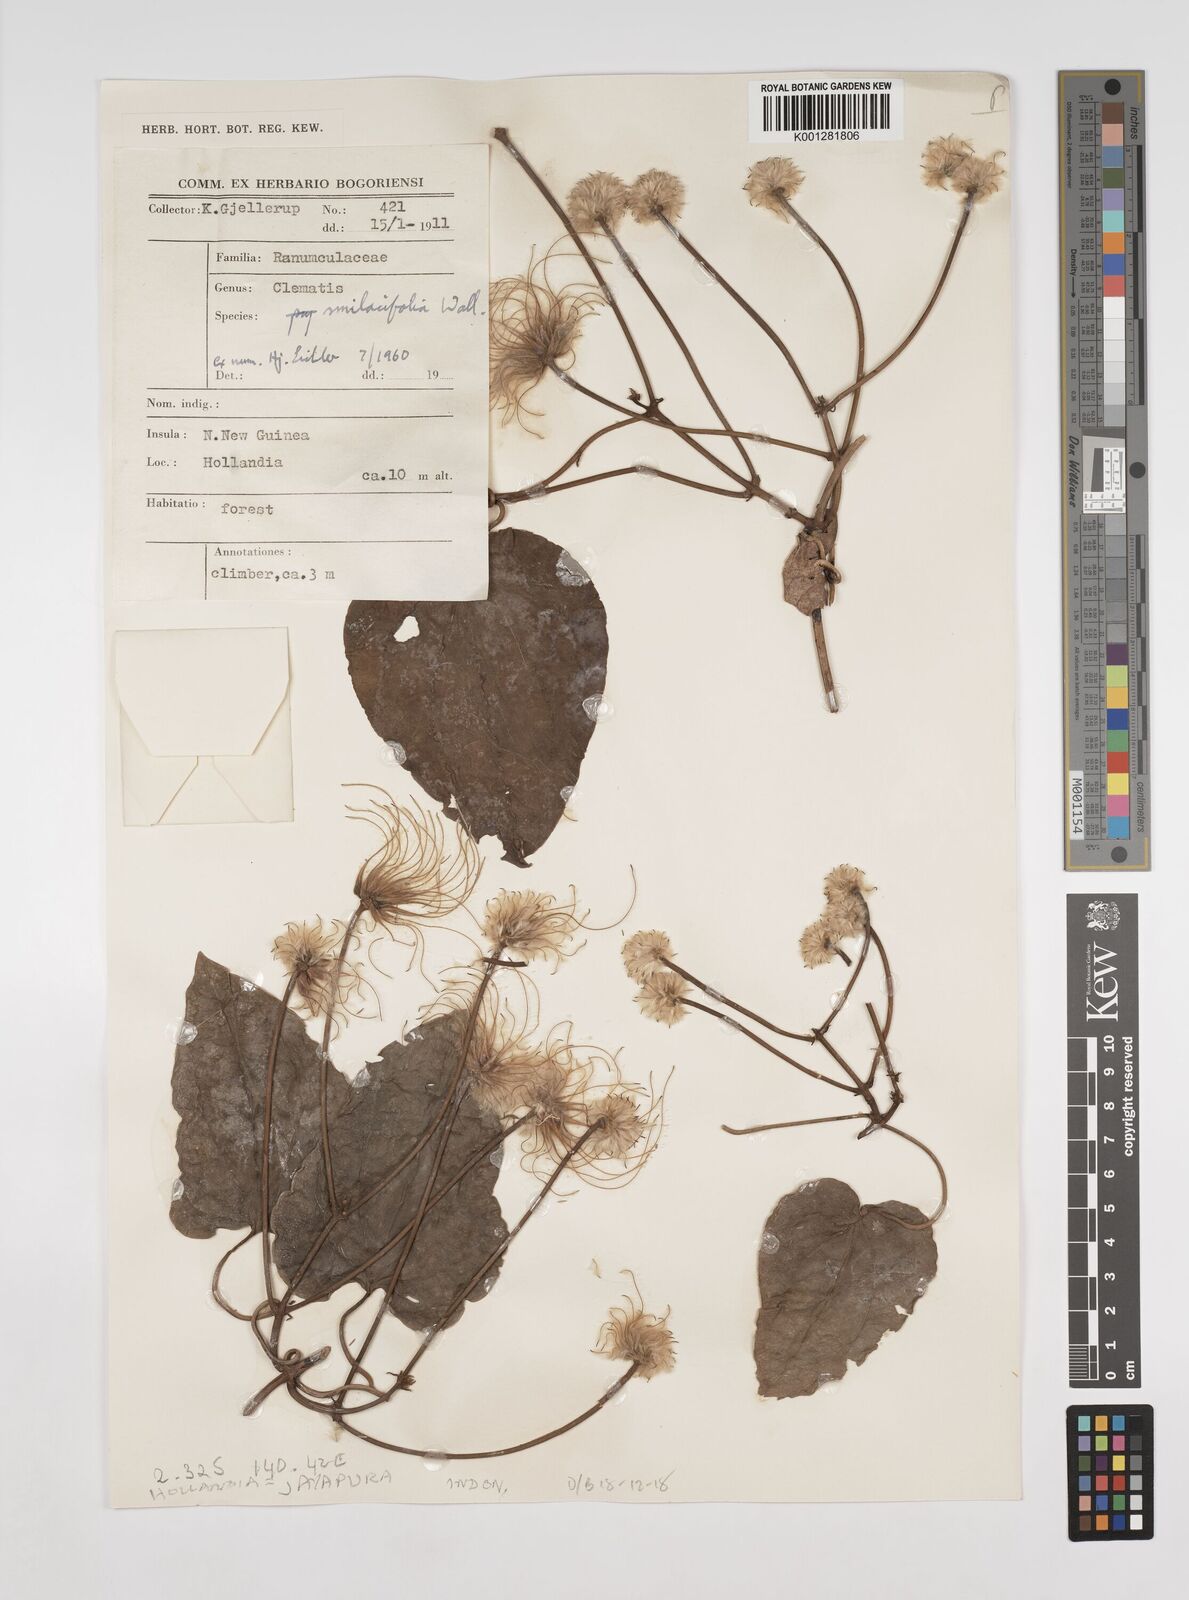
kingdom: Plantae
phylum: Tracheophyta
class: Magnoliopsida
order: Ranunculales
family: Ranunculaceae
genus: Clematis
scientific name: Clematis smilacifolia
